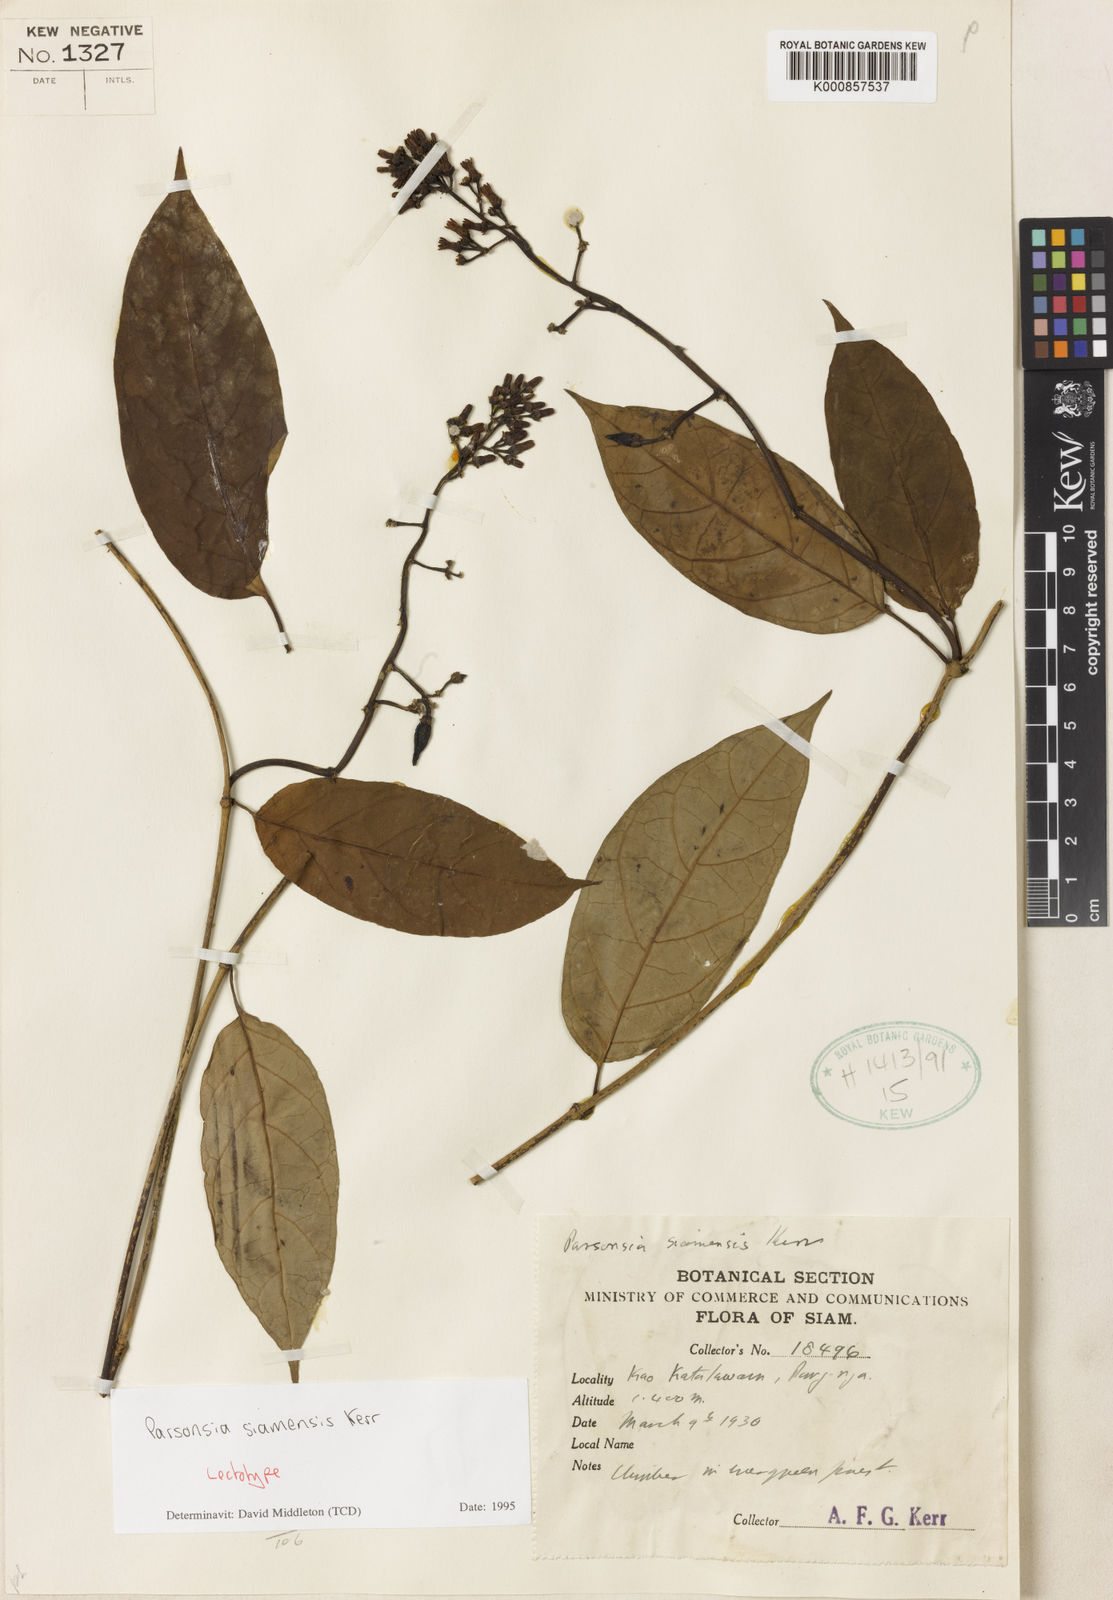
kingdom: Plantae
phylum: Tracheophyta
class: Magnoliopsida
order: Gentianales
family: Apocynaceae
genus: Parsonsia
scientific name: Parsonsia philippinensis
